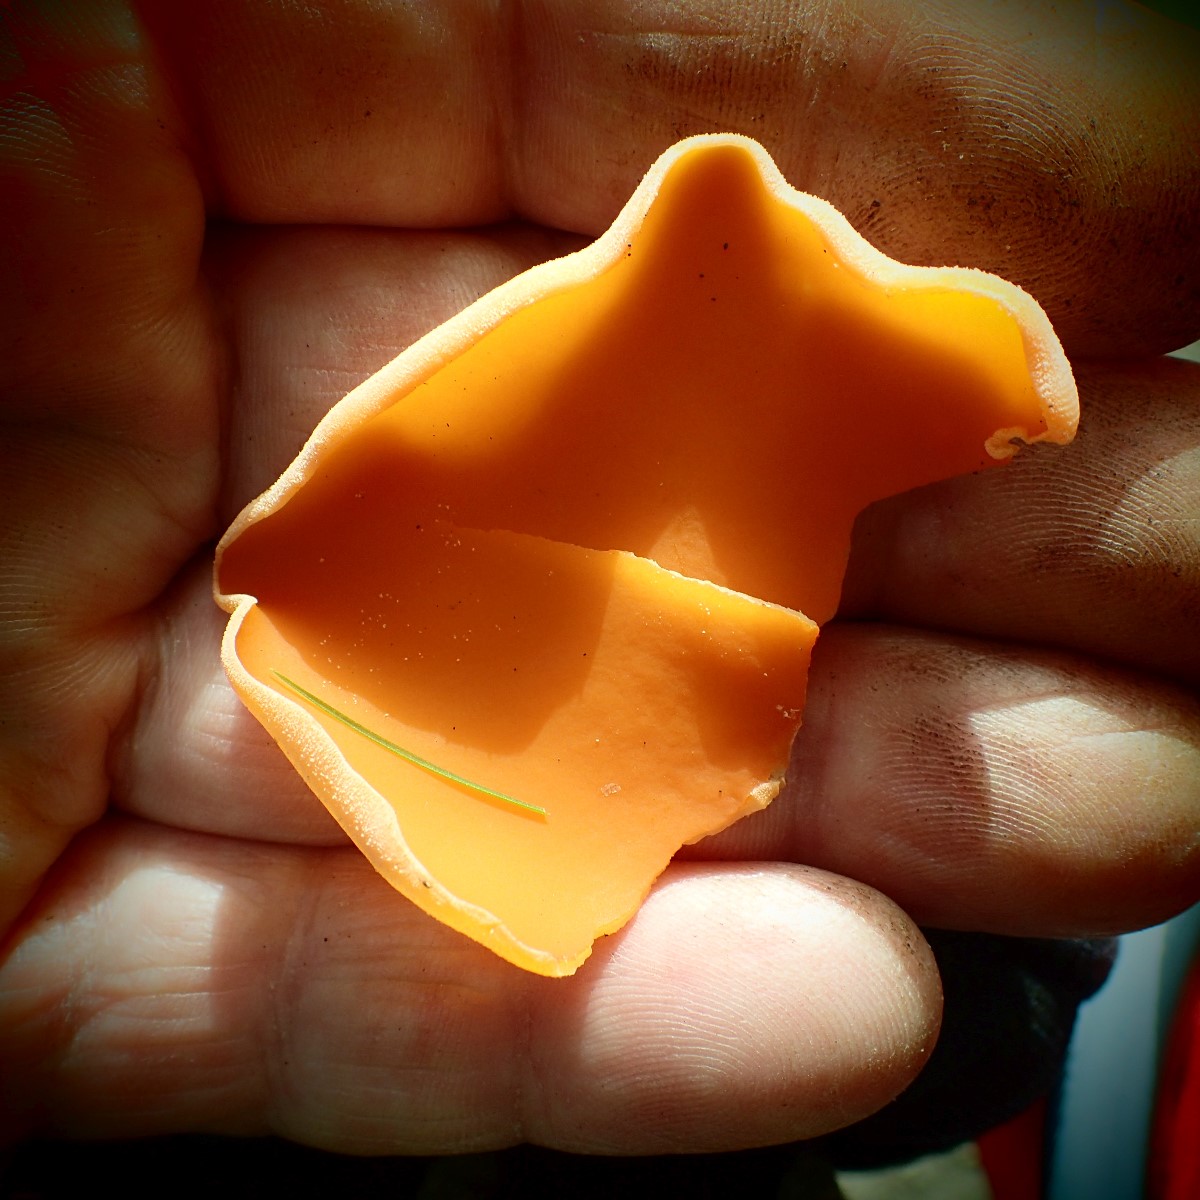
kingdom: Fungi
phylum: Ascomycota
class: Pezizomycetes
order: Pezizales
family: Pyronemataceae
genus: Aleuria
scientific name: Aleuria aurantia
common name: almindelig orangebæger
